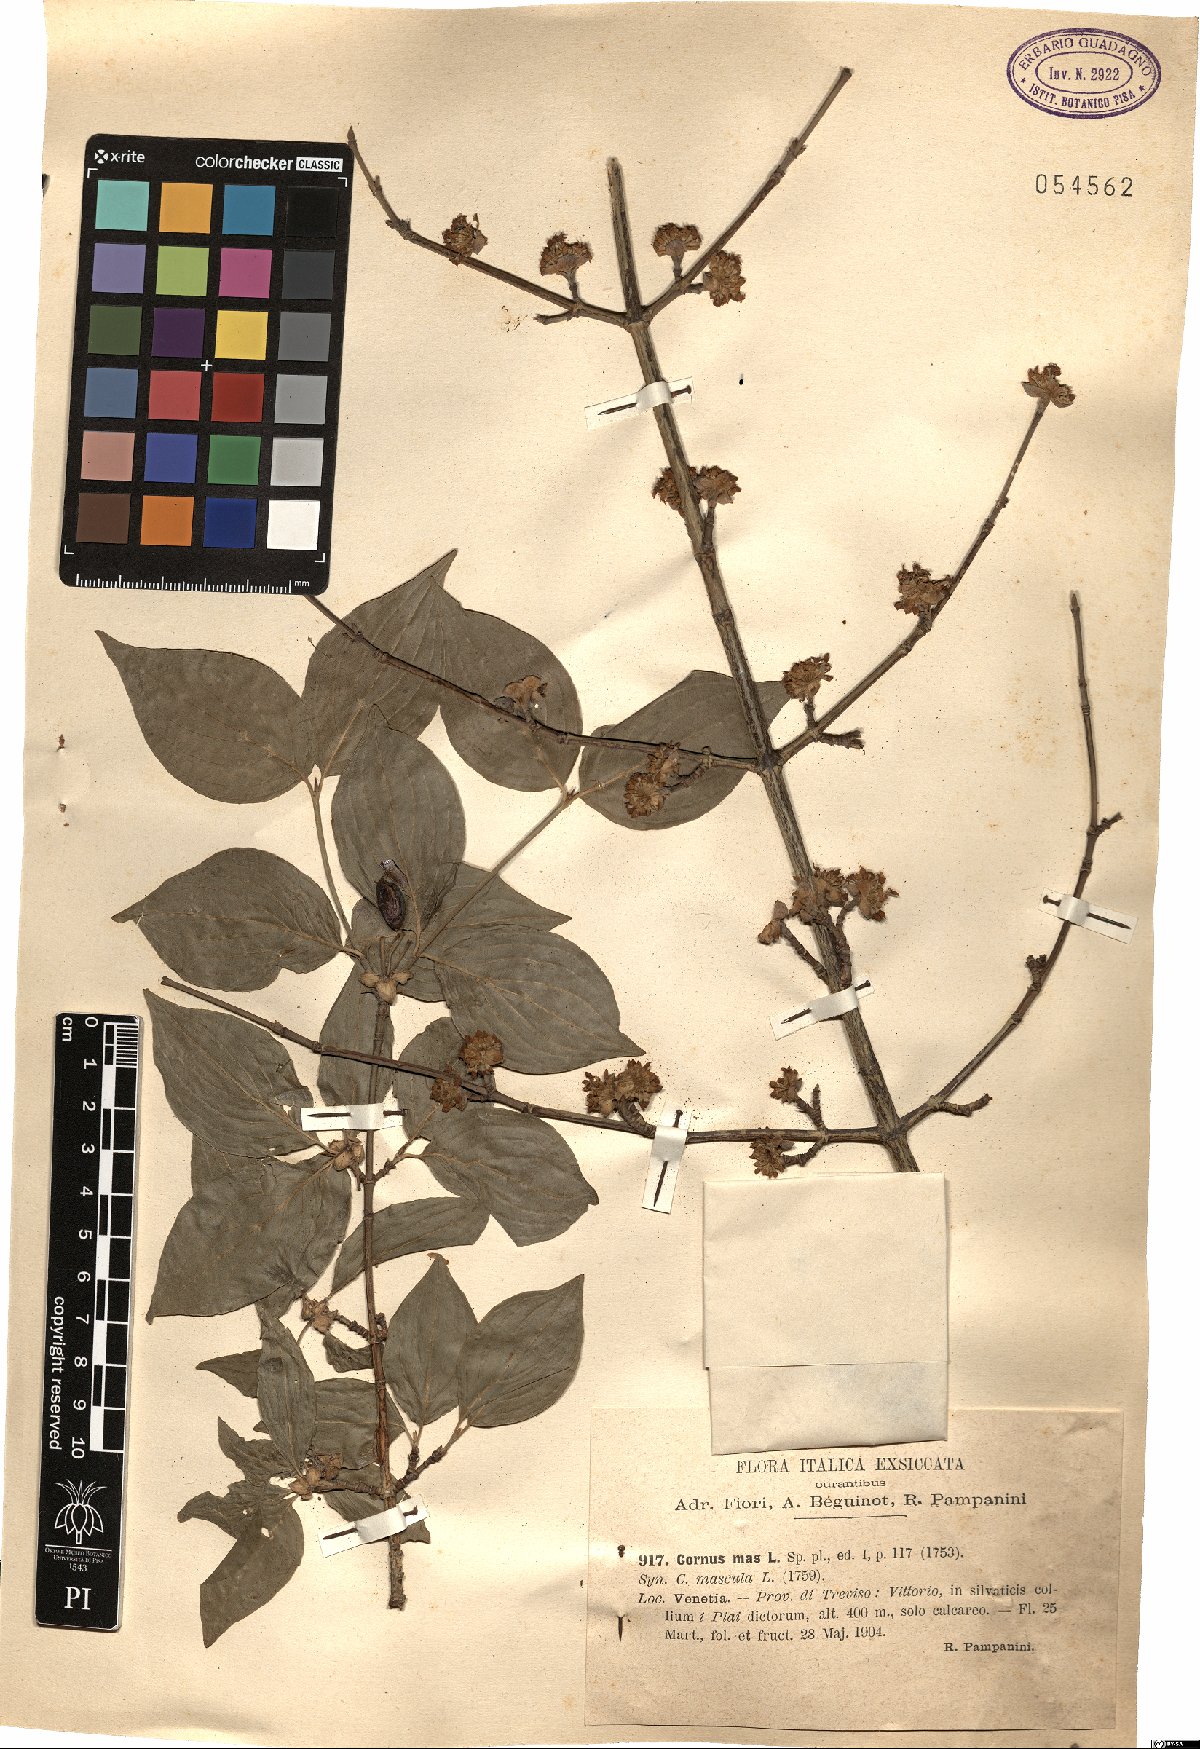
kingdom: Plantae
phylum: Tracheophyta
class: Magnoliopsida
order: Cornales
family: Cornaceae
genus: Cornus
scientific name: Cornus mas
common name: Cornelian-cherry
